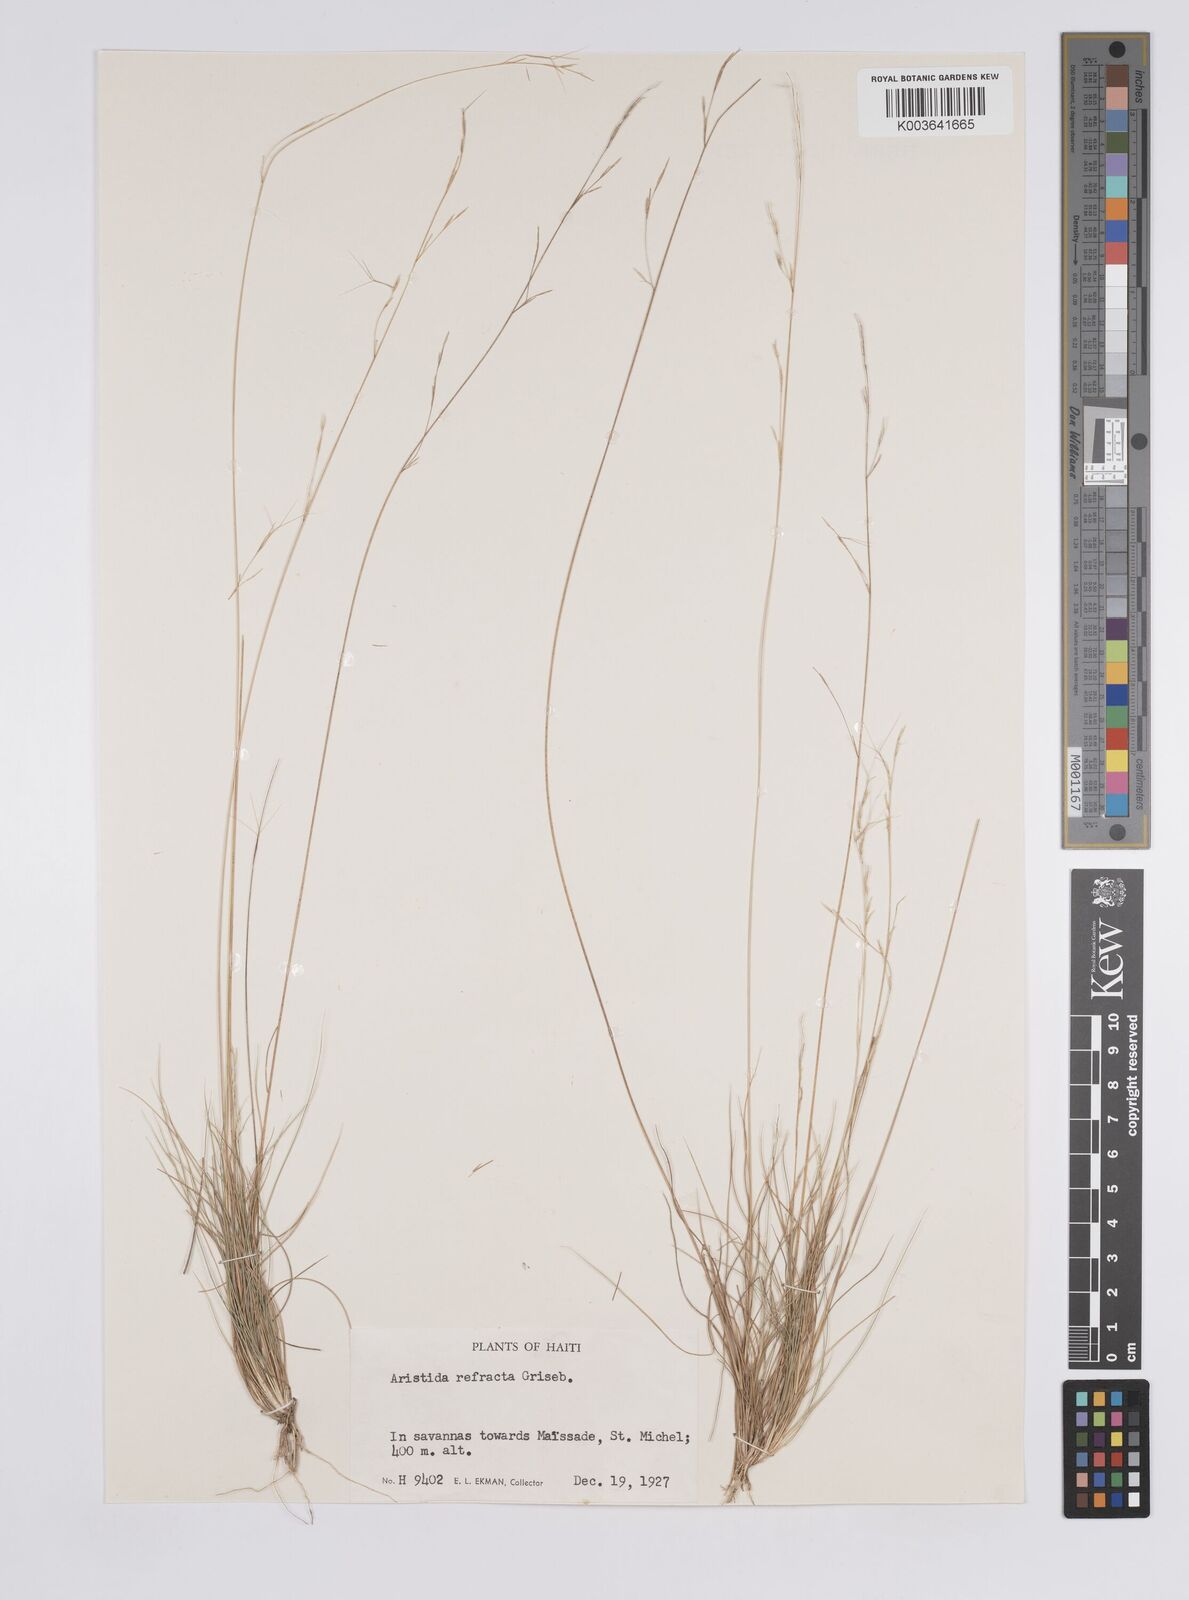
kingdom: Plantae
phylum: Tracheophyta
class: Liliopsida
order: Poales
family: Poaceae
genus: Aristida
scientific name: Aristida refracta
